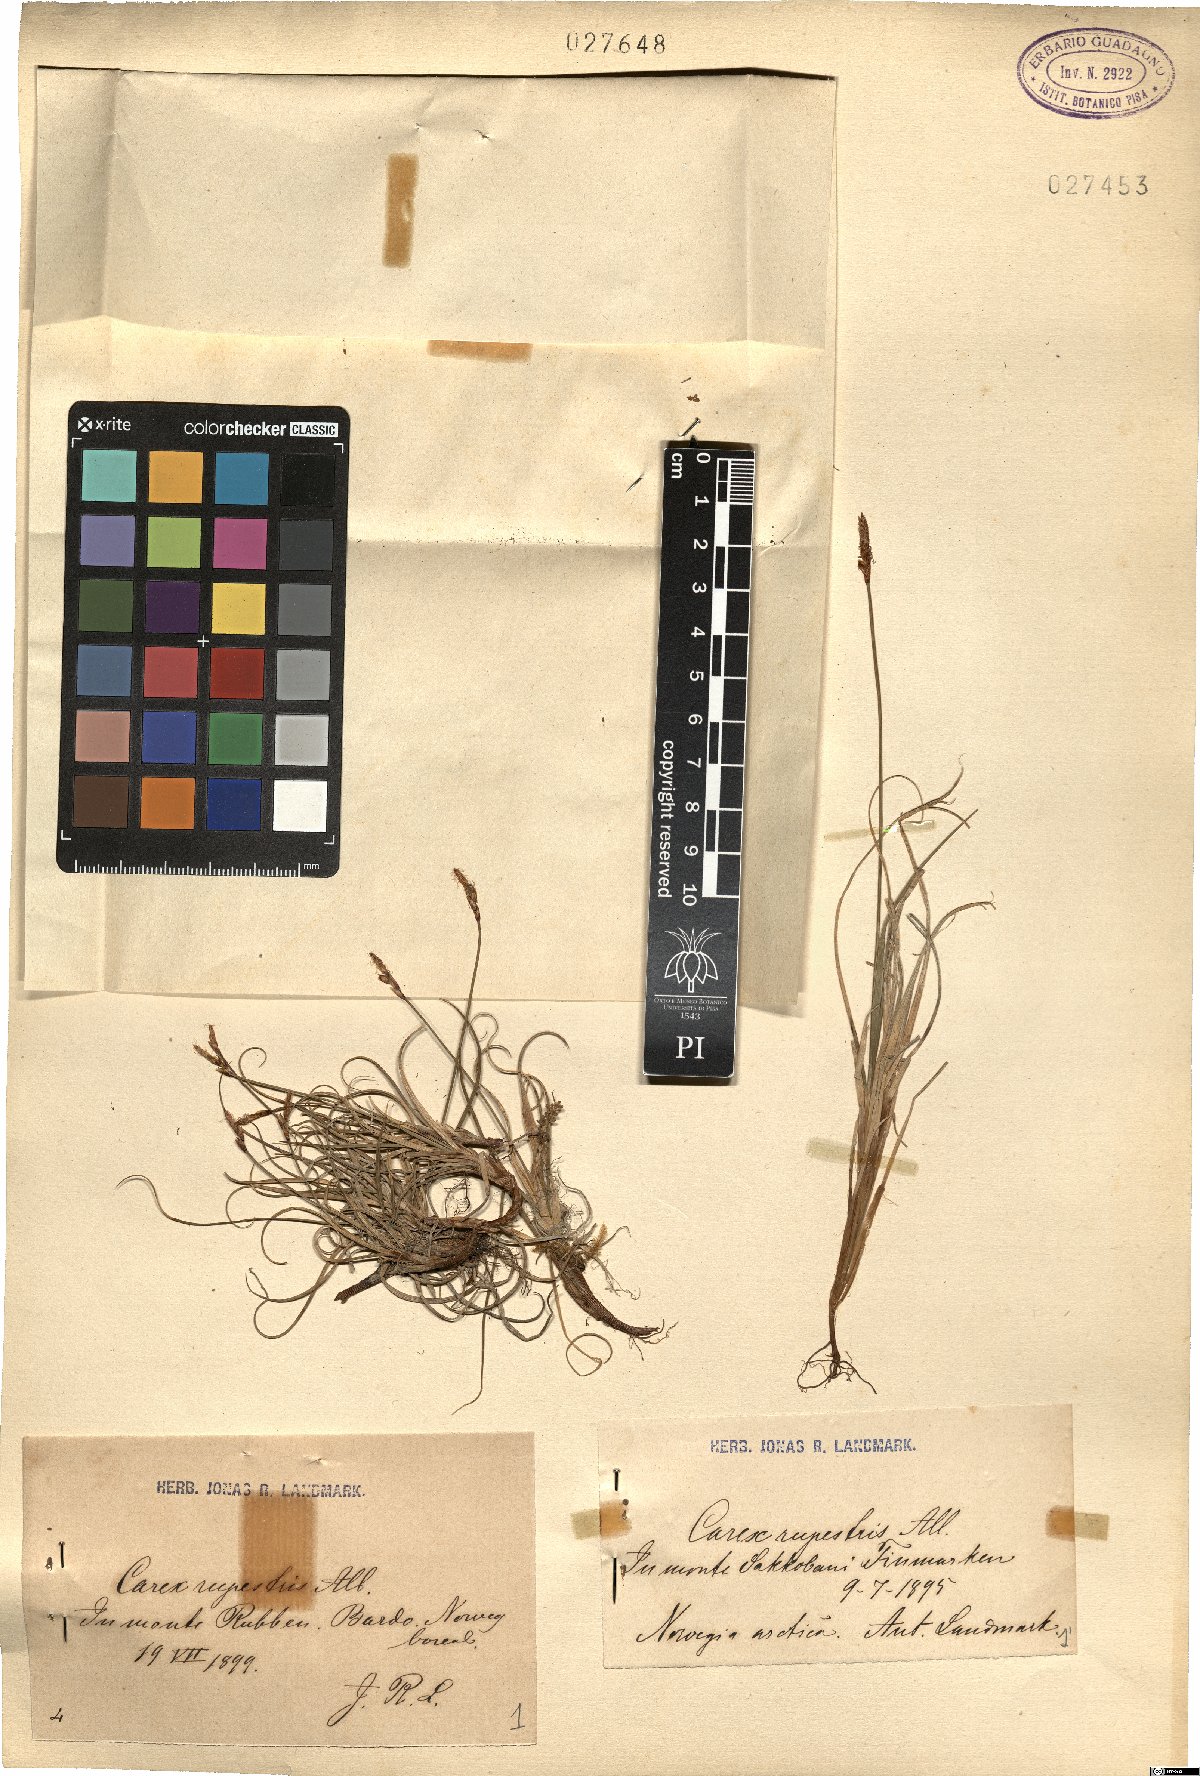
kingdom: Plantae
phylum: Tracheophyta
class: Liliopsida
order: Poales
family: Cyperaceae
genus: Carex
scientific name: Carex rupestris
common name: Rock sedge
